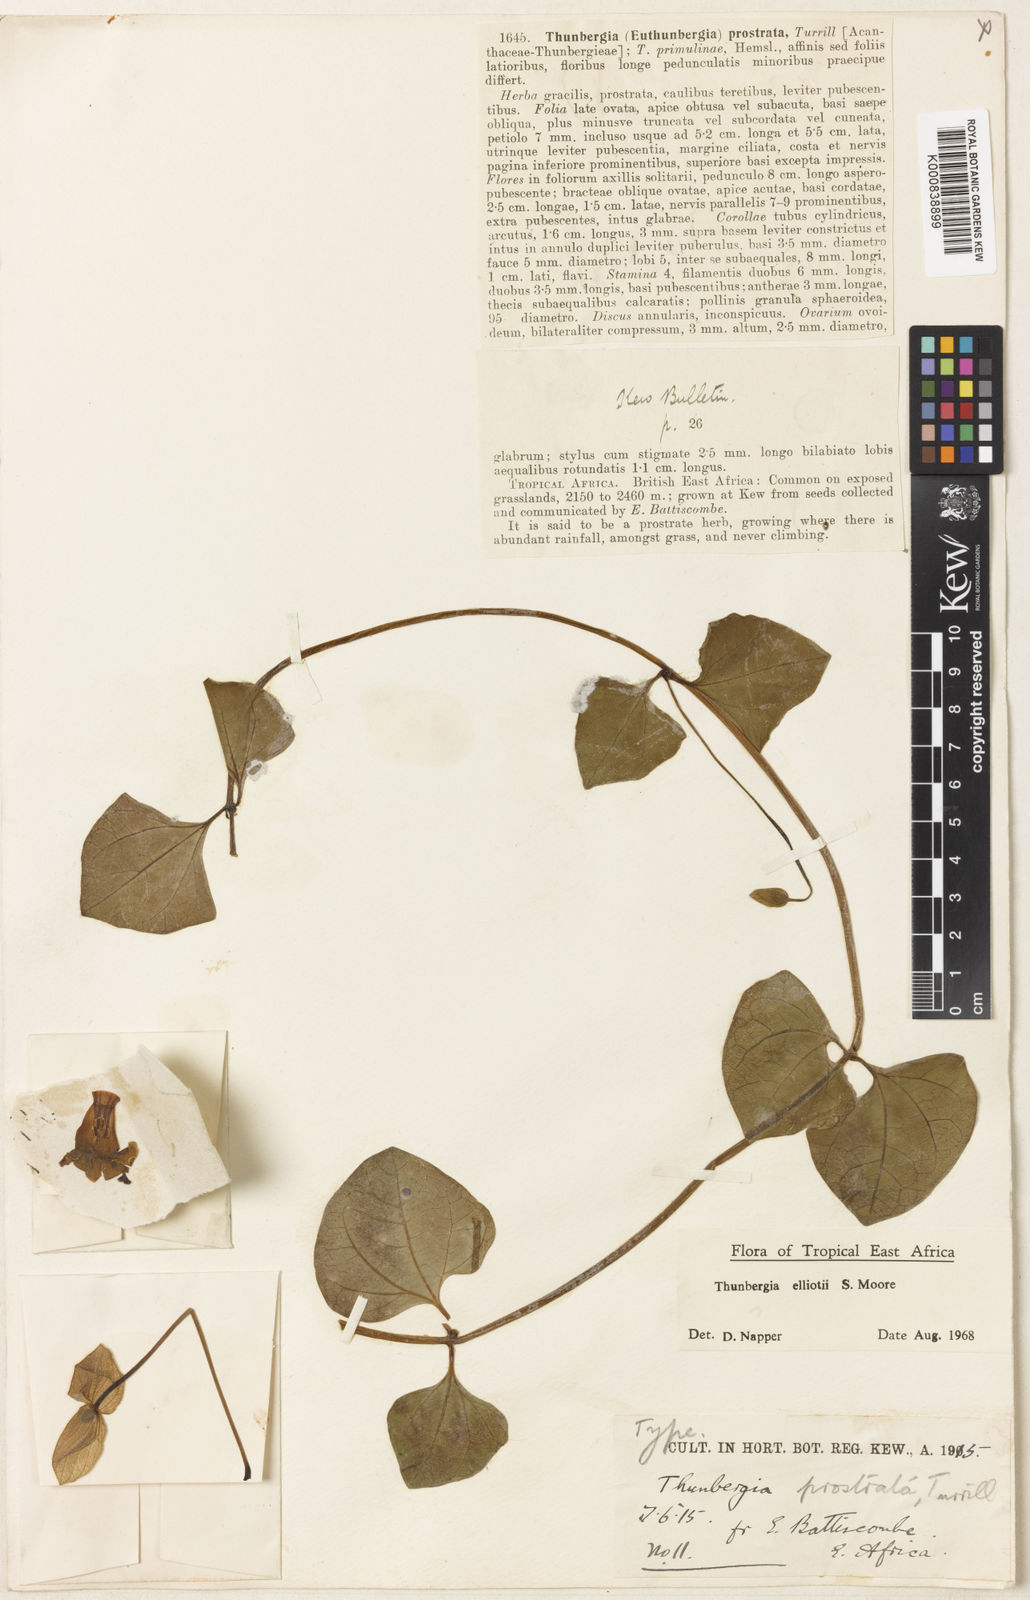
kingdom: Plantae
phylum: Tracheophyta
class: Magnoliopsida
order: Lamiales
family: Acanthaceae
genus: Thunbergia
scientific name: Thunbergia gibsonii
